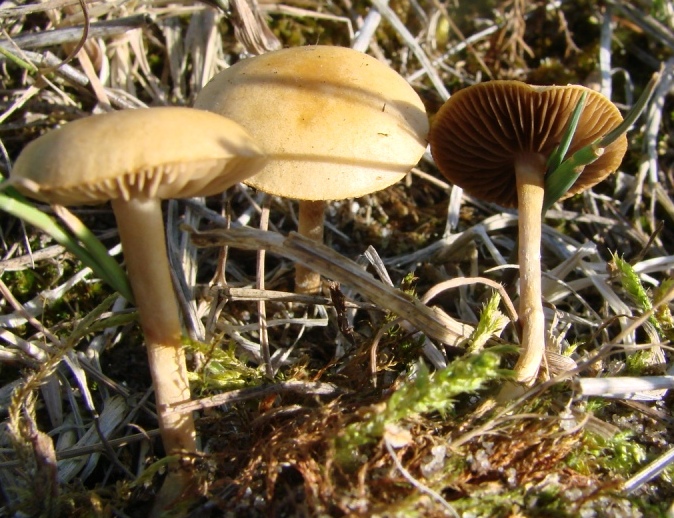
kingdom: Fungi
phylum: Basidiomycota
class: Agaricomycetes
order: Agaricales
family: Strophariaceae
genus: Agrocybe
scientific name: Agrocybe pediades
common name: almindelig agerhat
